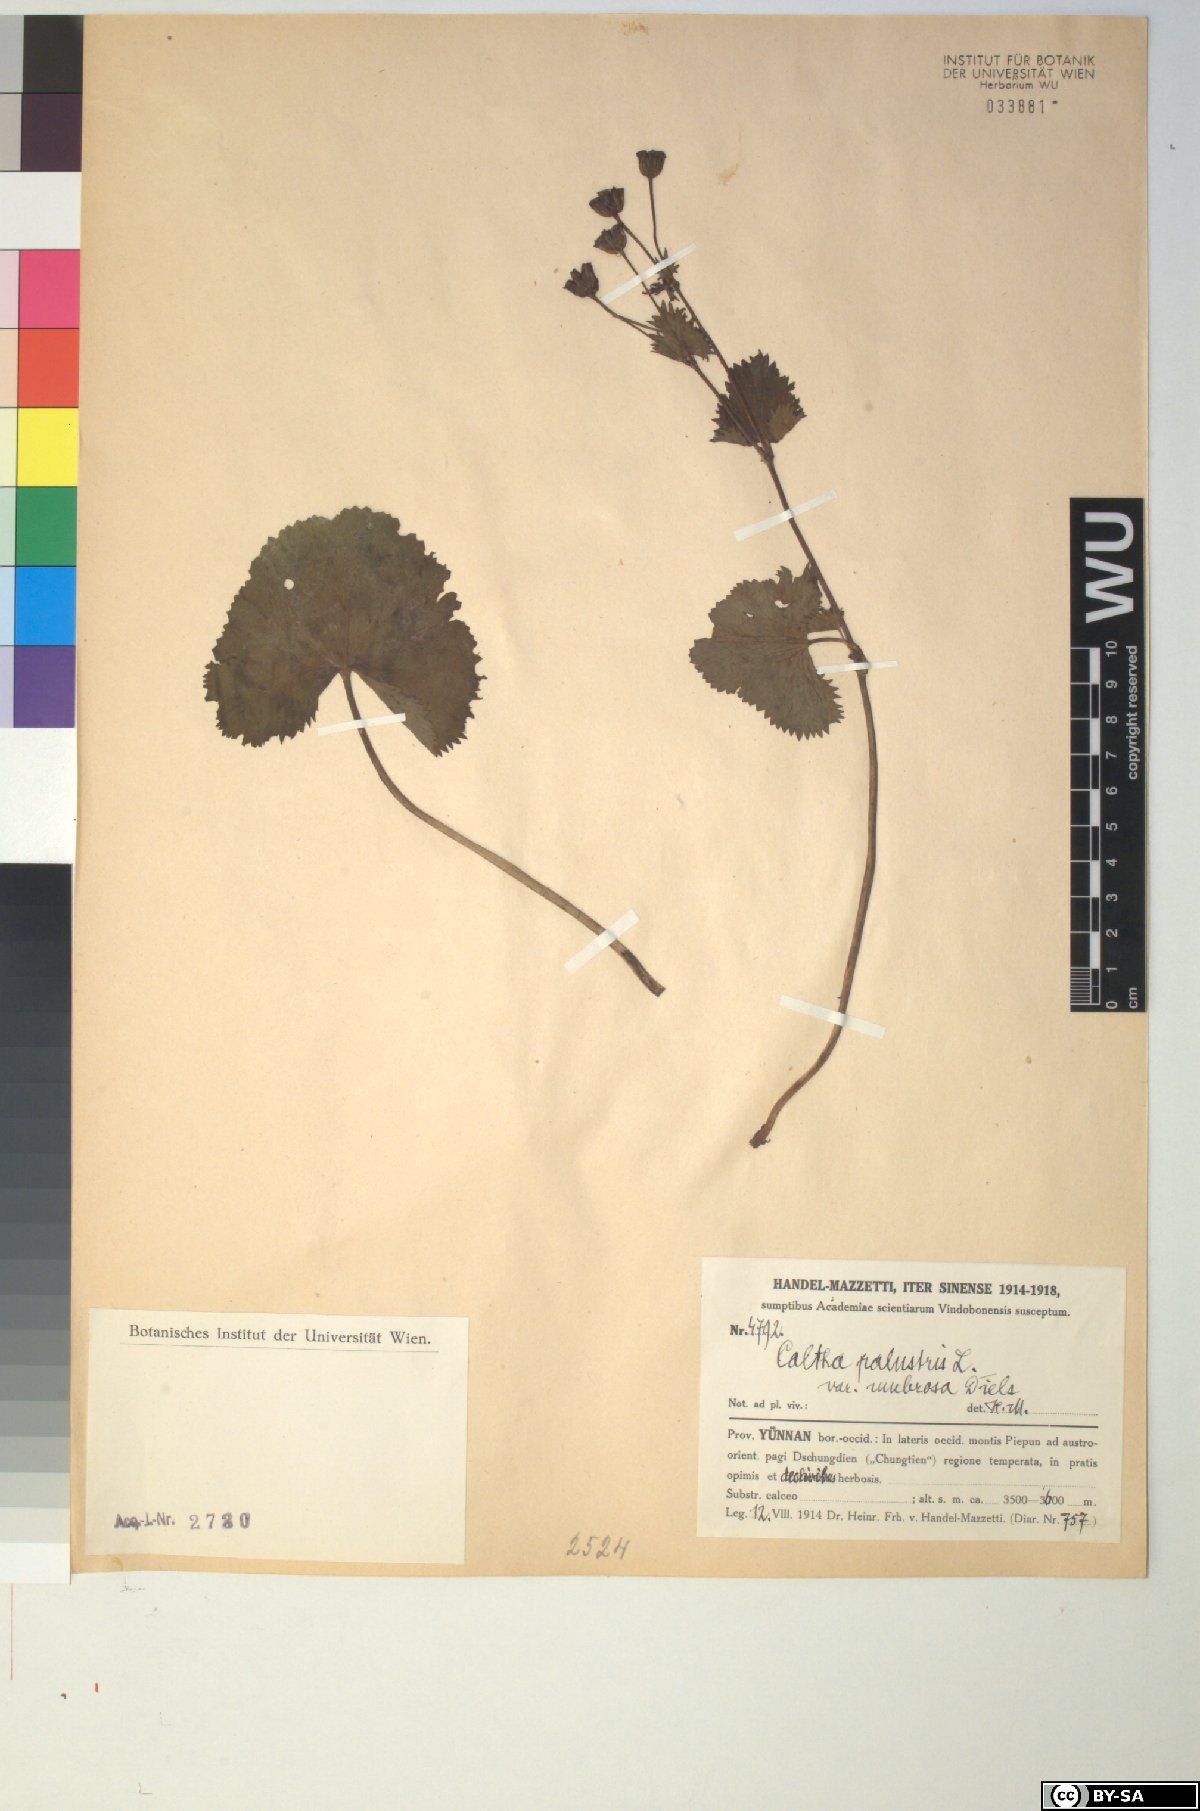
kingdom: Plantae
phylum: Tracheophyta
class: Magnoliopsida
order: Ranunculales
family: Ranunculaceae
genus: Caltha
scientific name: Caltha palustris
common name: Marsh marigold
